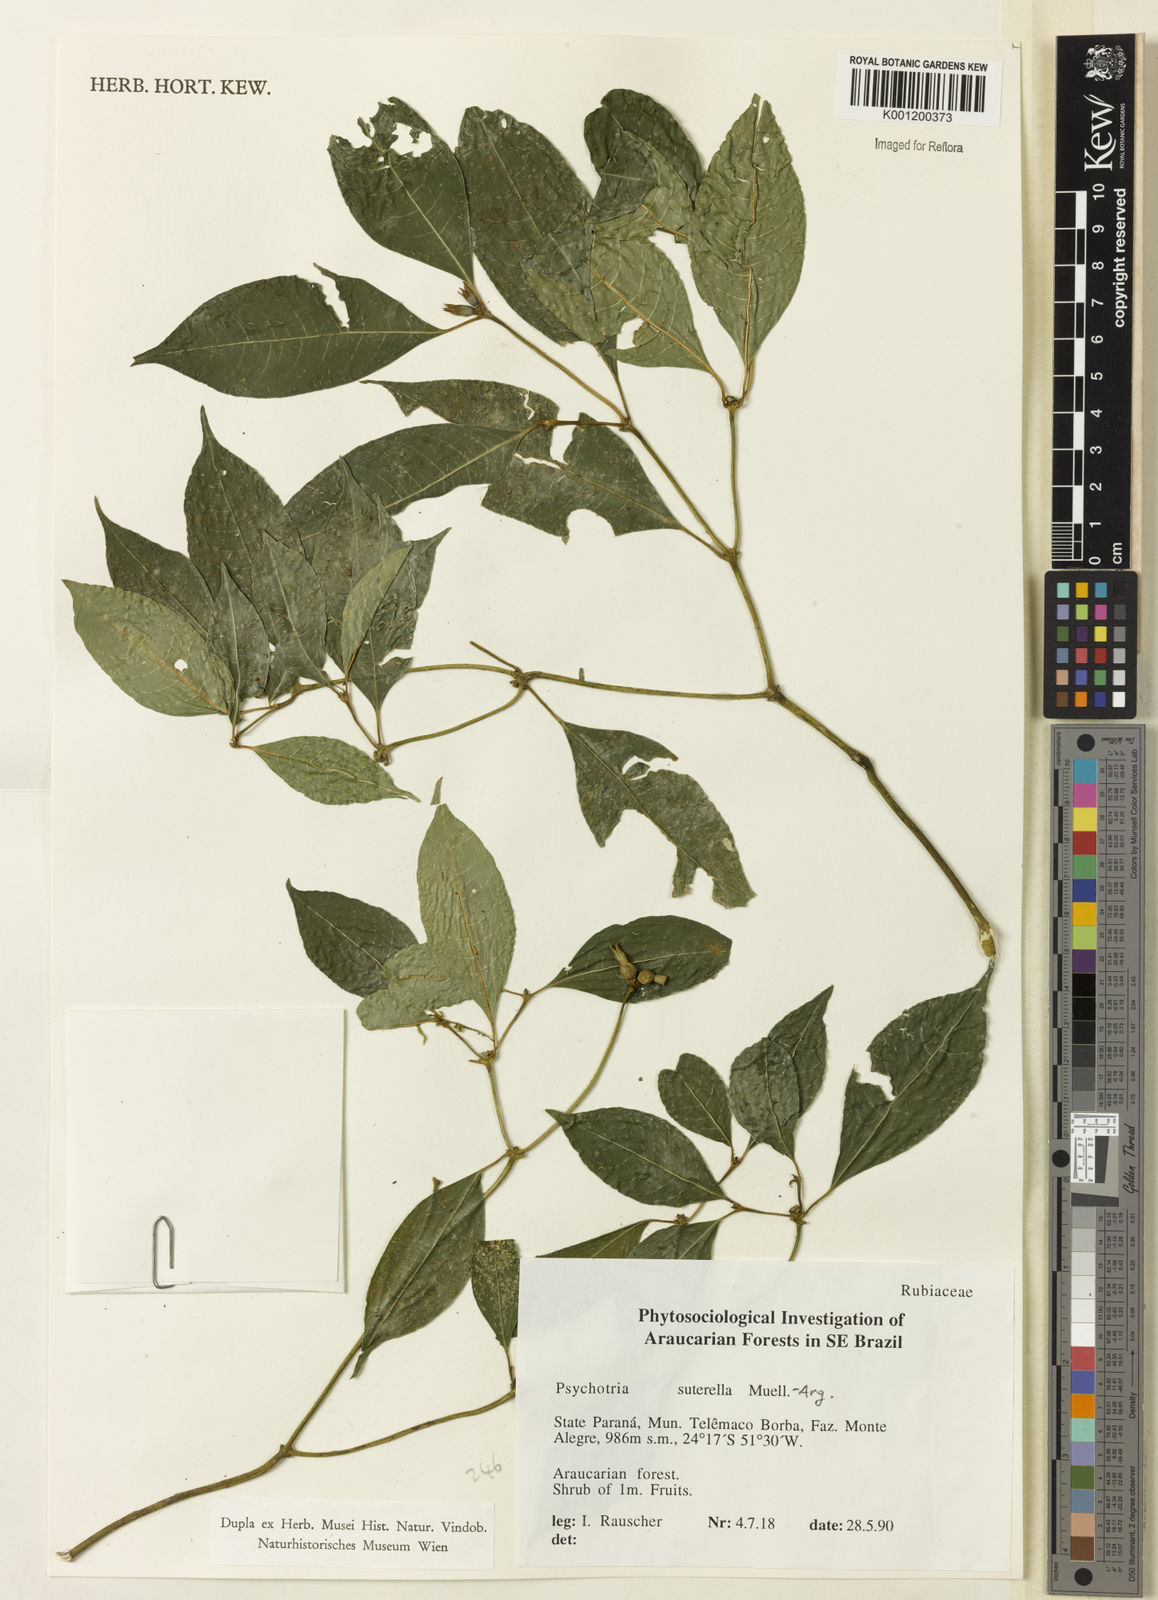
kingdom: Plantae
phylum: Tracheophyta
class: Magnoliopsida
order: Gentianales
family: Rubiaceae
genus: Psychotria
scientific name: Psychotria
